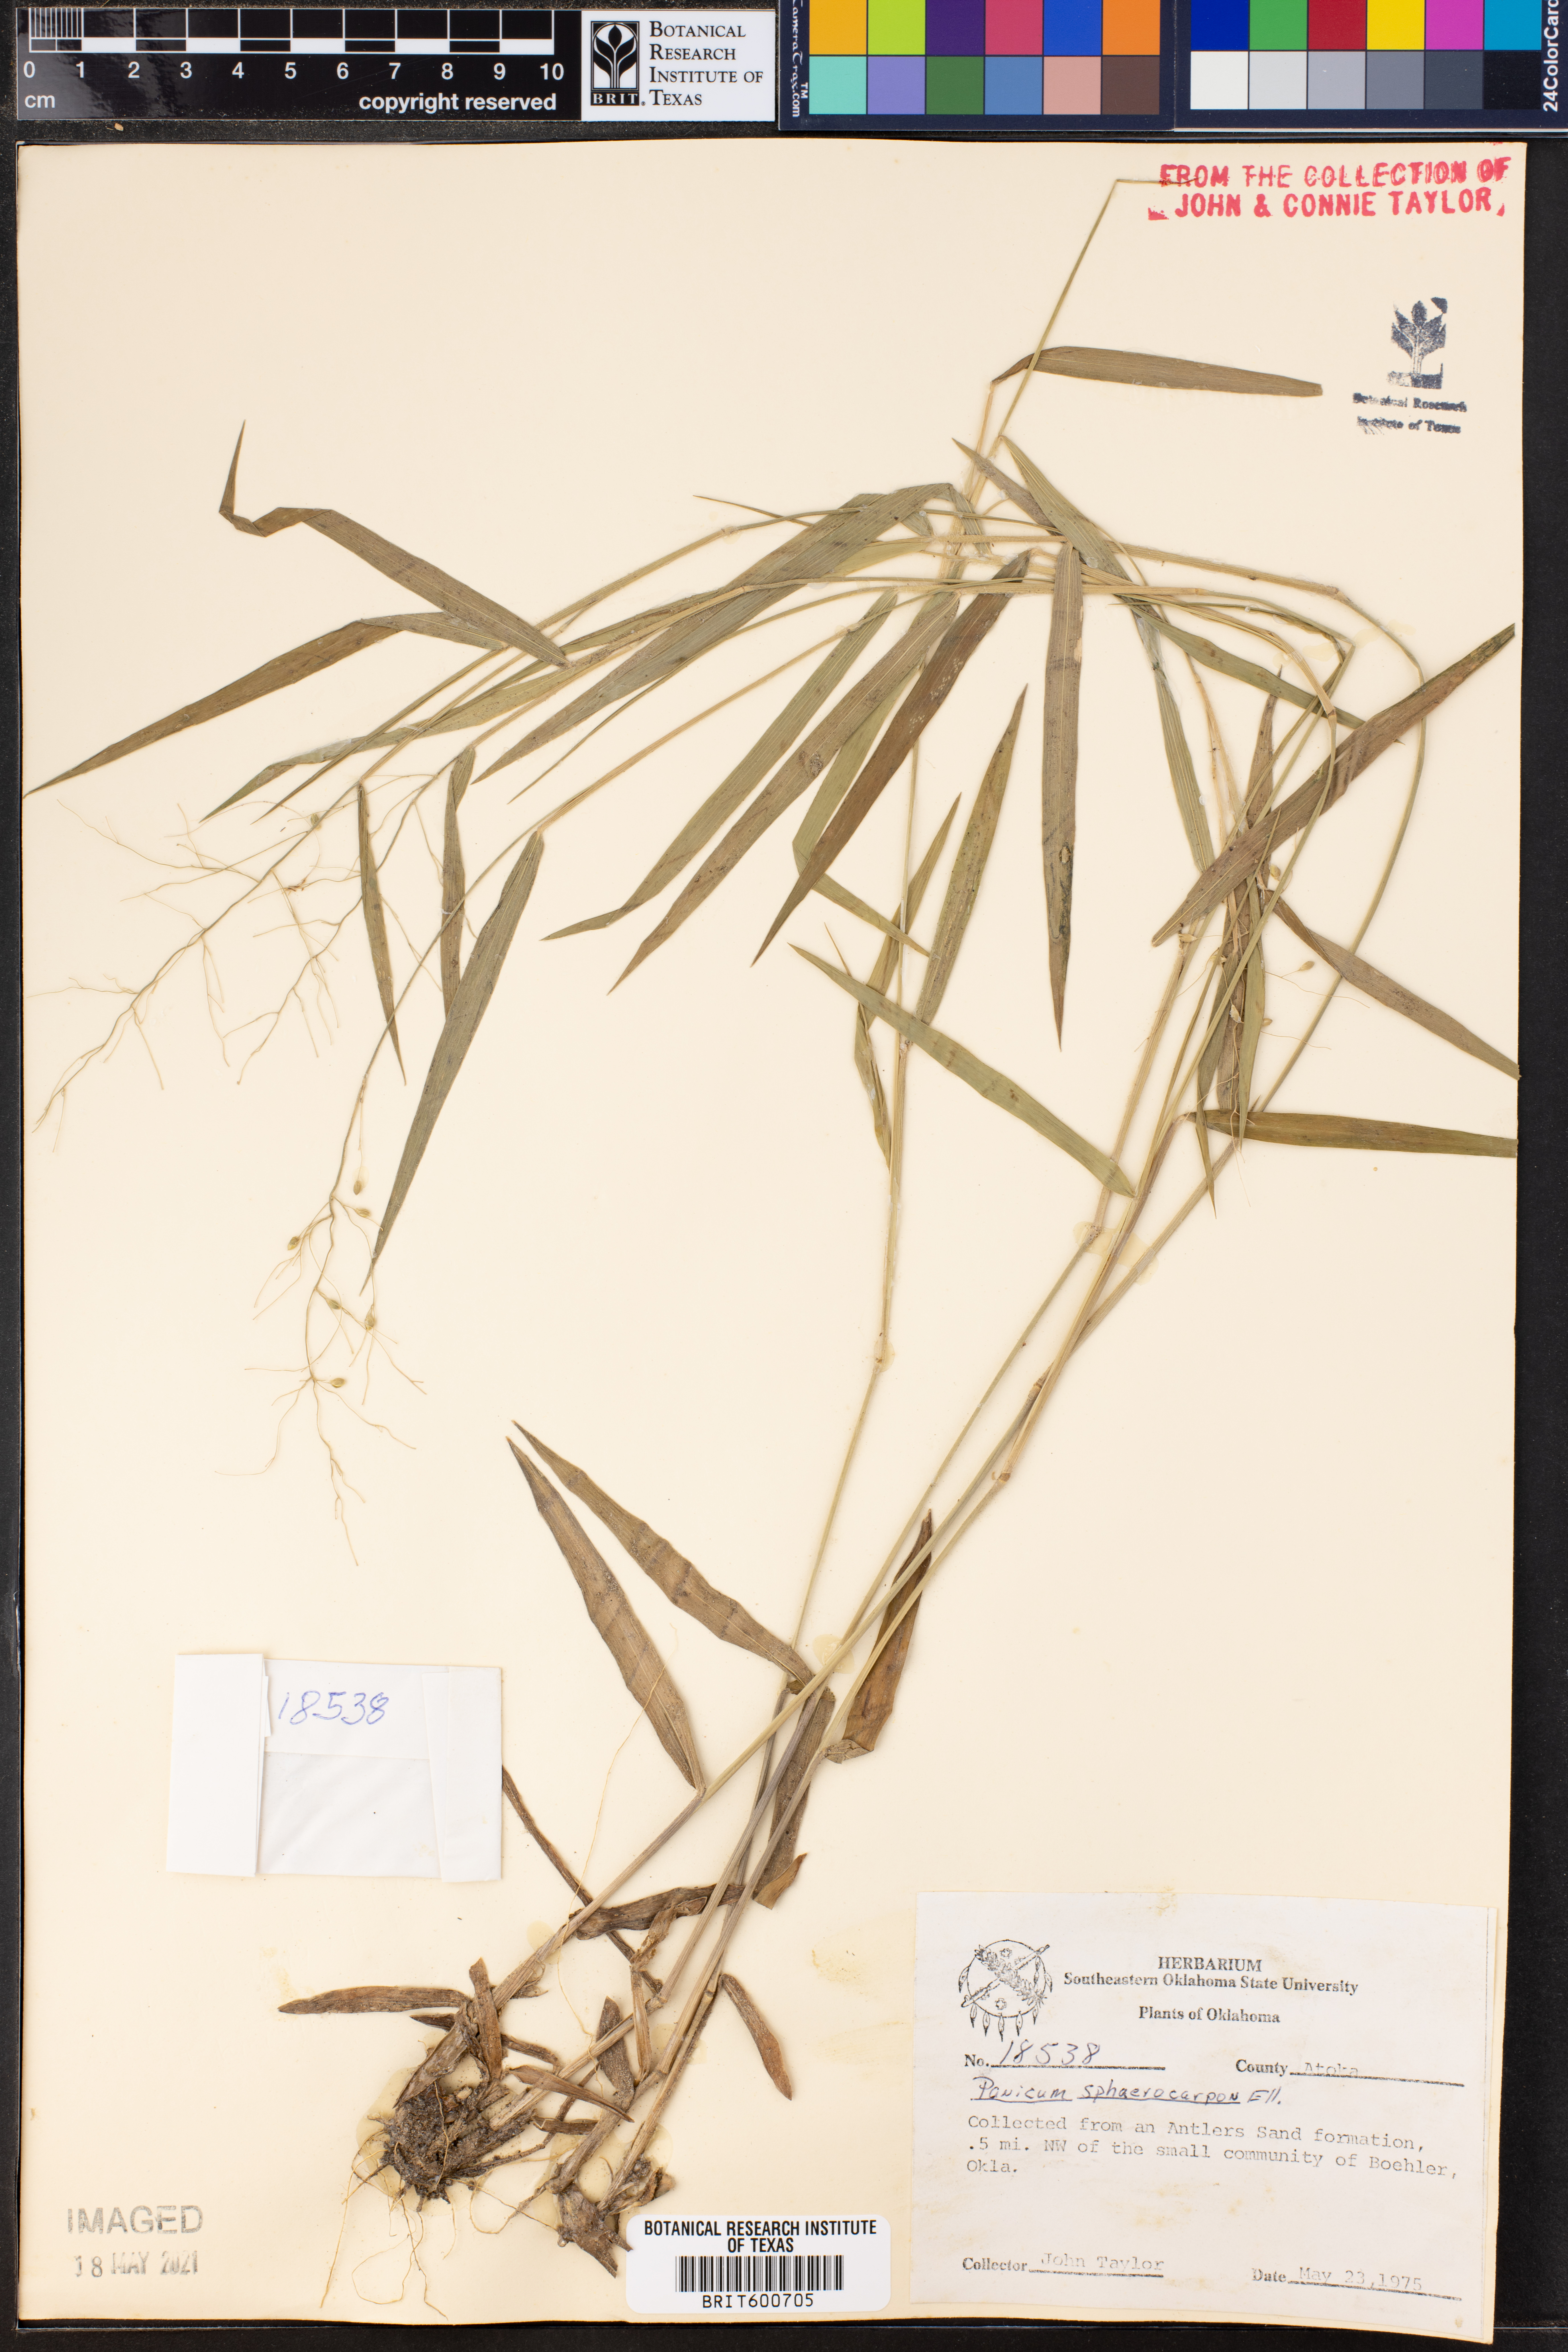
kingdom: Plantae
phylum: Tracheophyta
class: Liliopsida
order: Poales
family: Poaceae
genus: Dichanthelium
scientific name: Dichanthelium sphaerocarpon
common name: Round-fruited panicgrass
